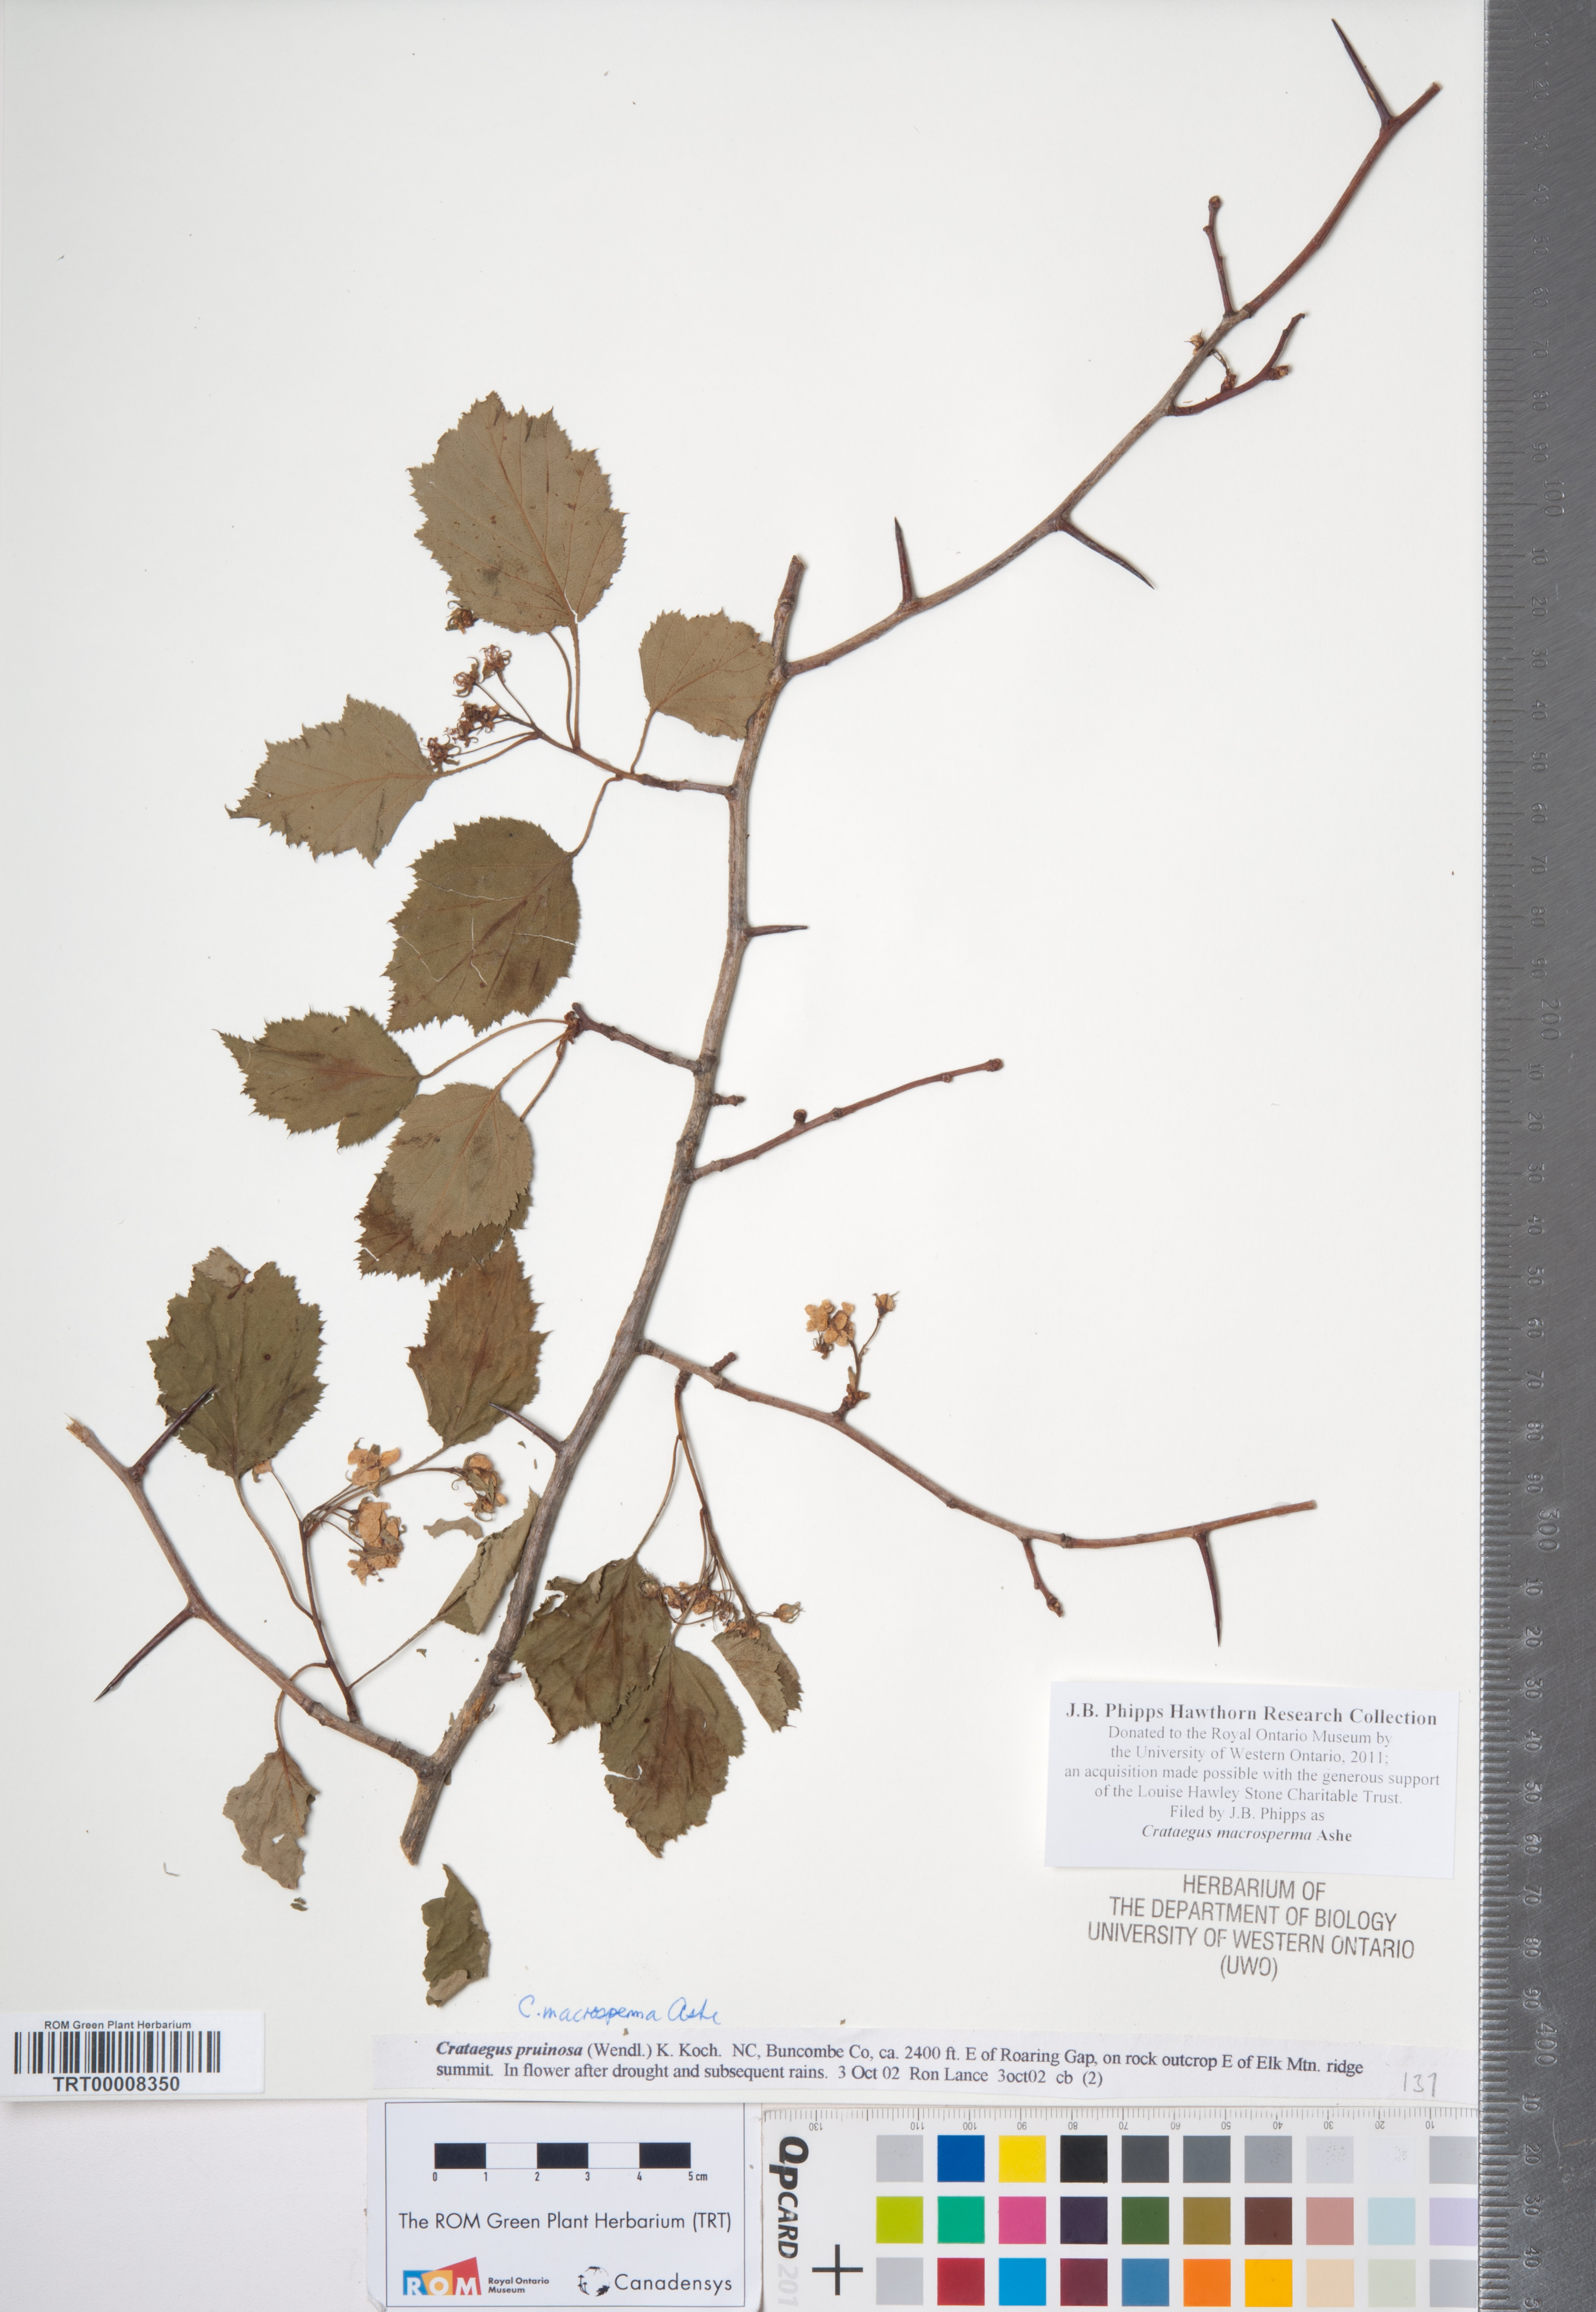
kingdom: Plantae
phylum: Tracheophyta
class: Magnoliopsida
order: Rosales
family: Rosaceae
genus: Crataegus
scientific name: Crataegus macrosperma
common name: Variable hawthorn
